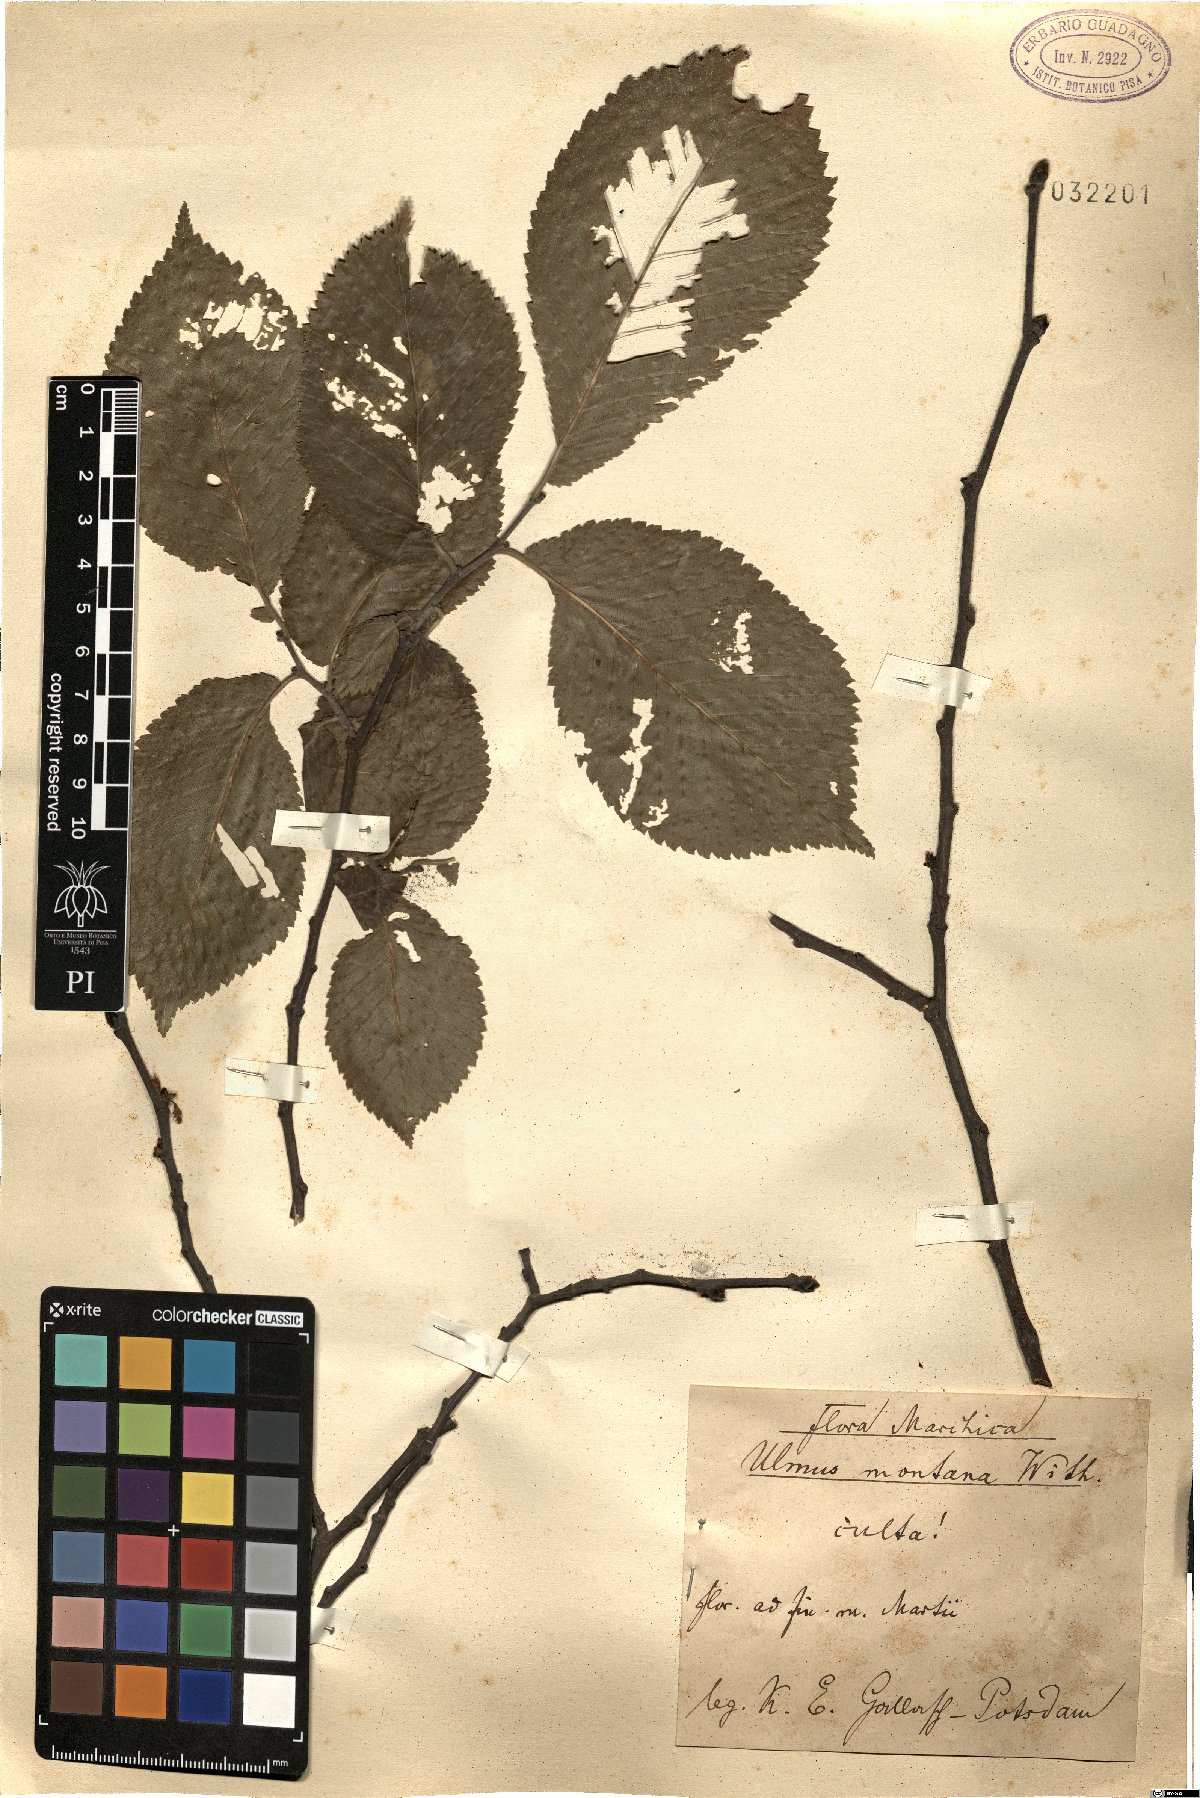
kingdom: Plantae
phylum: Tracheophyta
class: Magnoliopsida
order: Rosales
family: Ulmaceae
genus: Ulmus
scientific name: Ulmus glabra
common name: Wych elm
